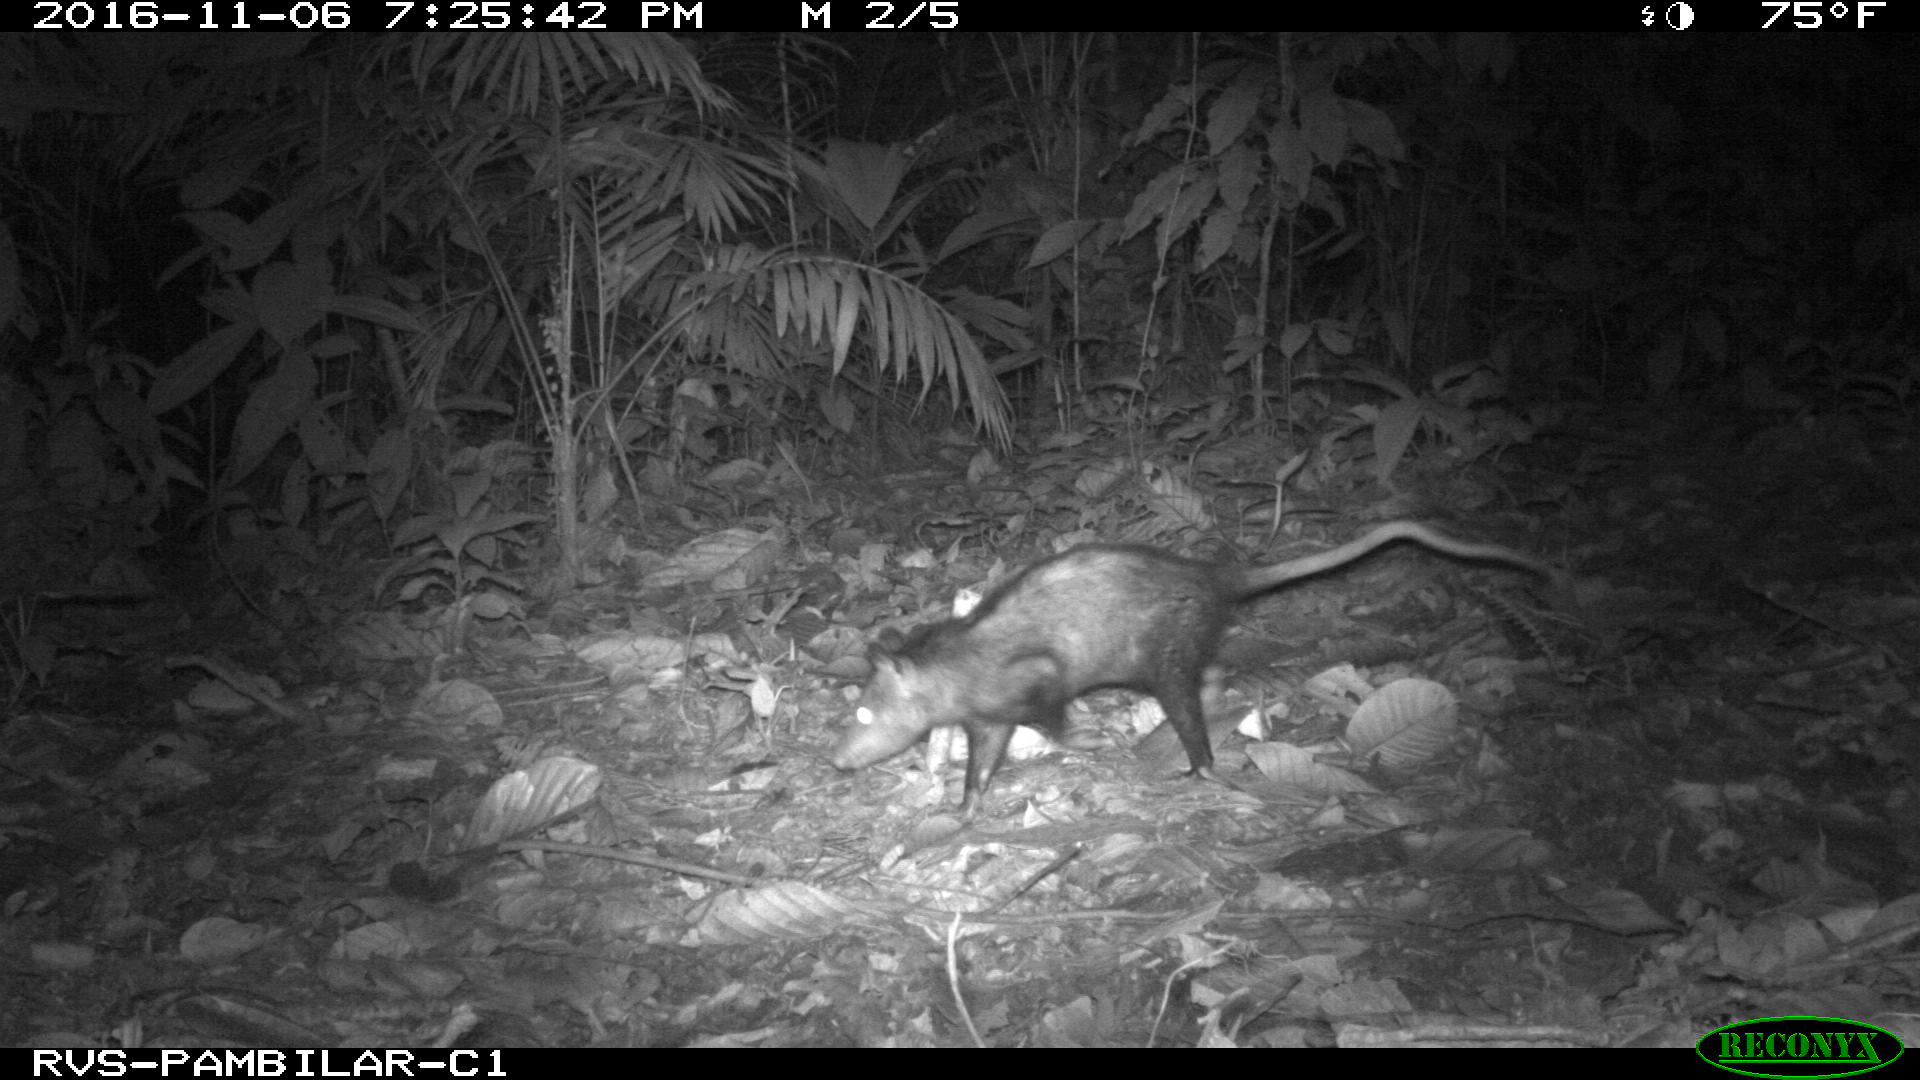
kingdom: Animalia
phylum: Chordata
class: Mammalia
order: Didelphimorphia
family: Didelphidae
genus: Didelphis
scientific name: Didelphis marsupialis
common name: Common opossum
